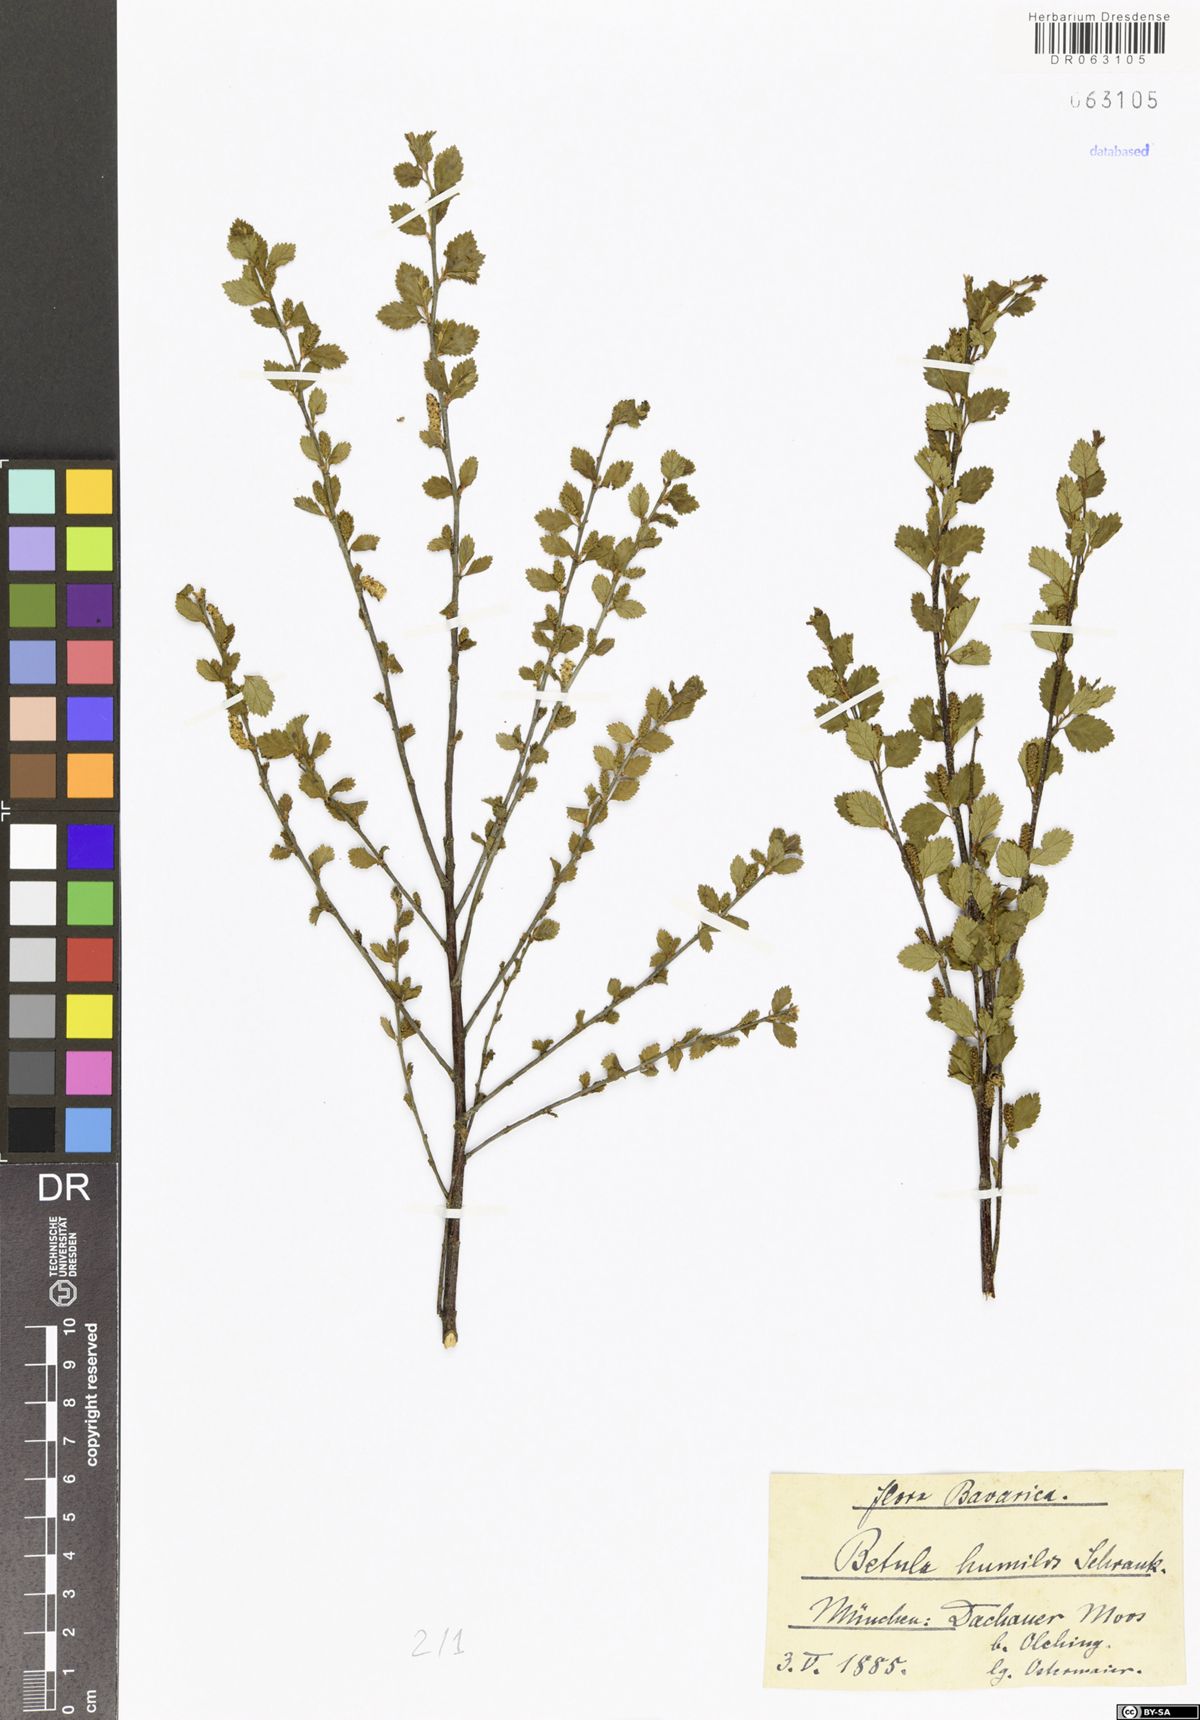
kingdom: Plantae
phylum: Tracheophyta
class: Magnoliopsida
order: Fagales
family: Betulaceae
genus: Betula
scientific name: Betula humilis
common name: Shrubby birch
